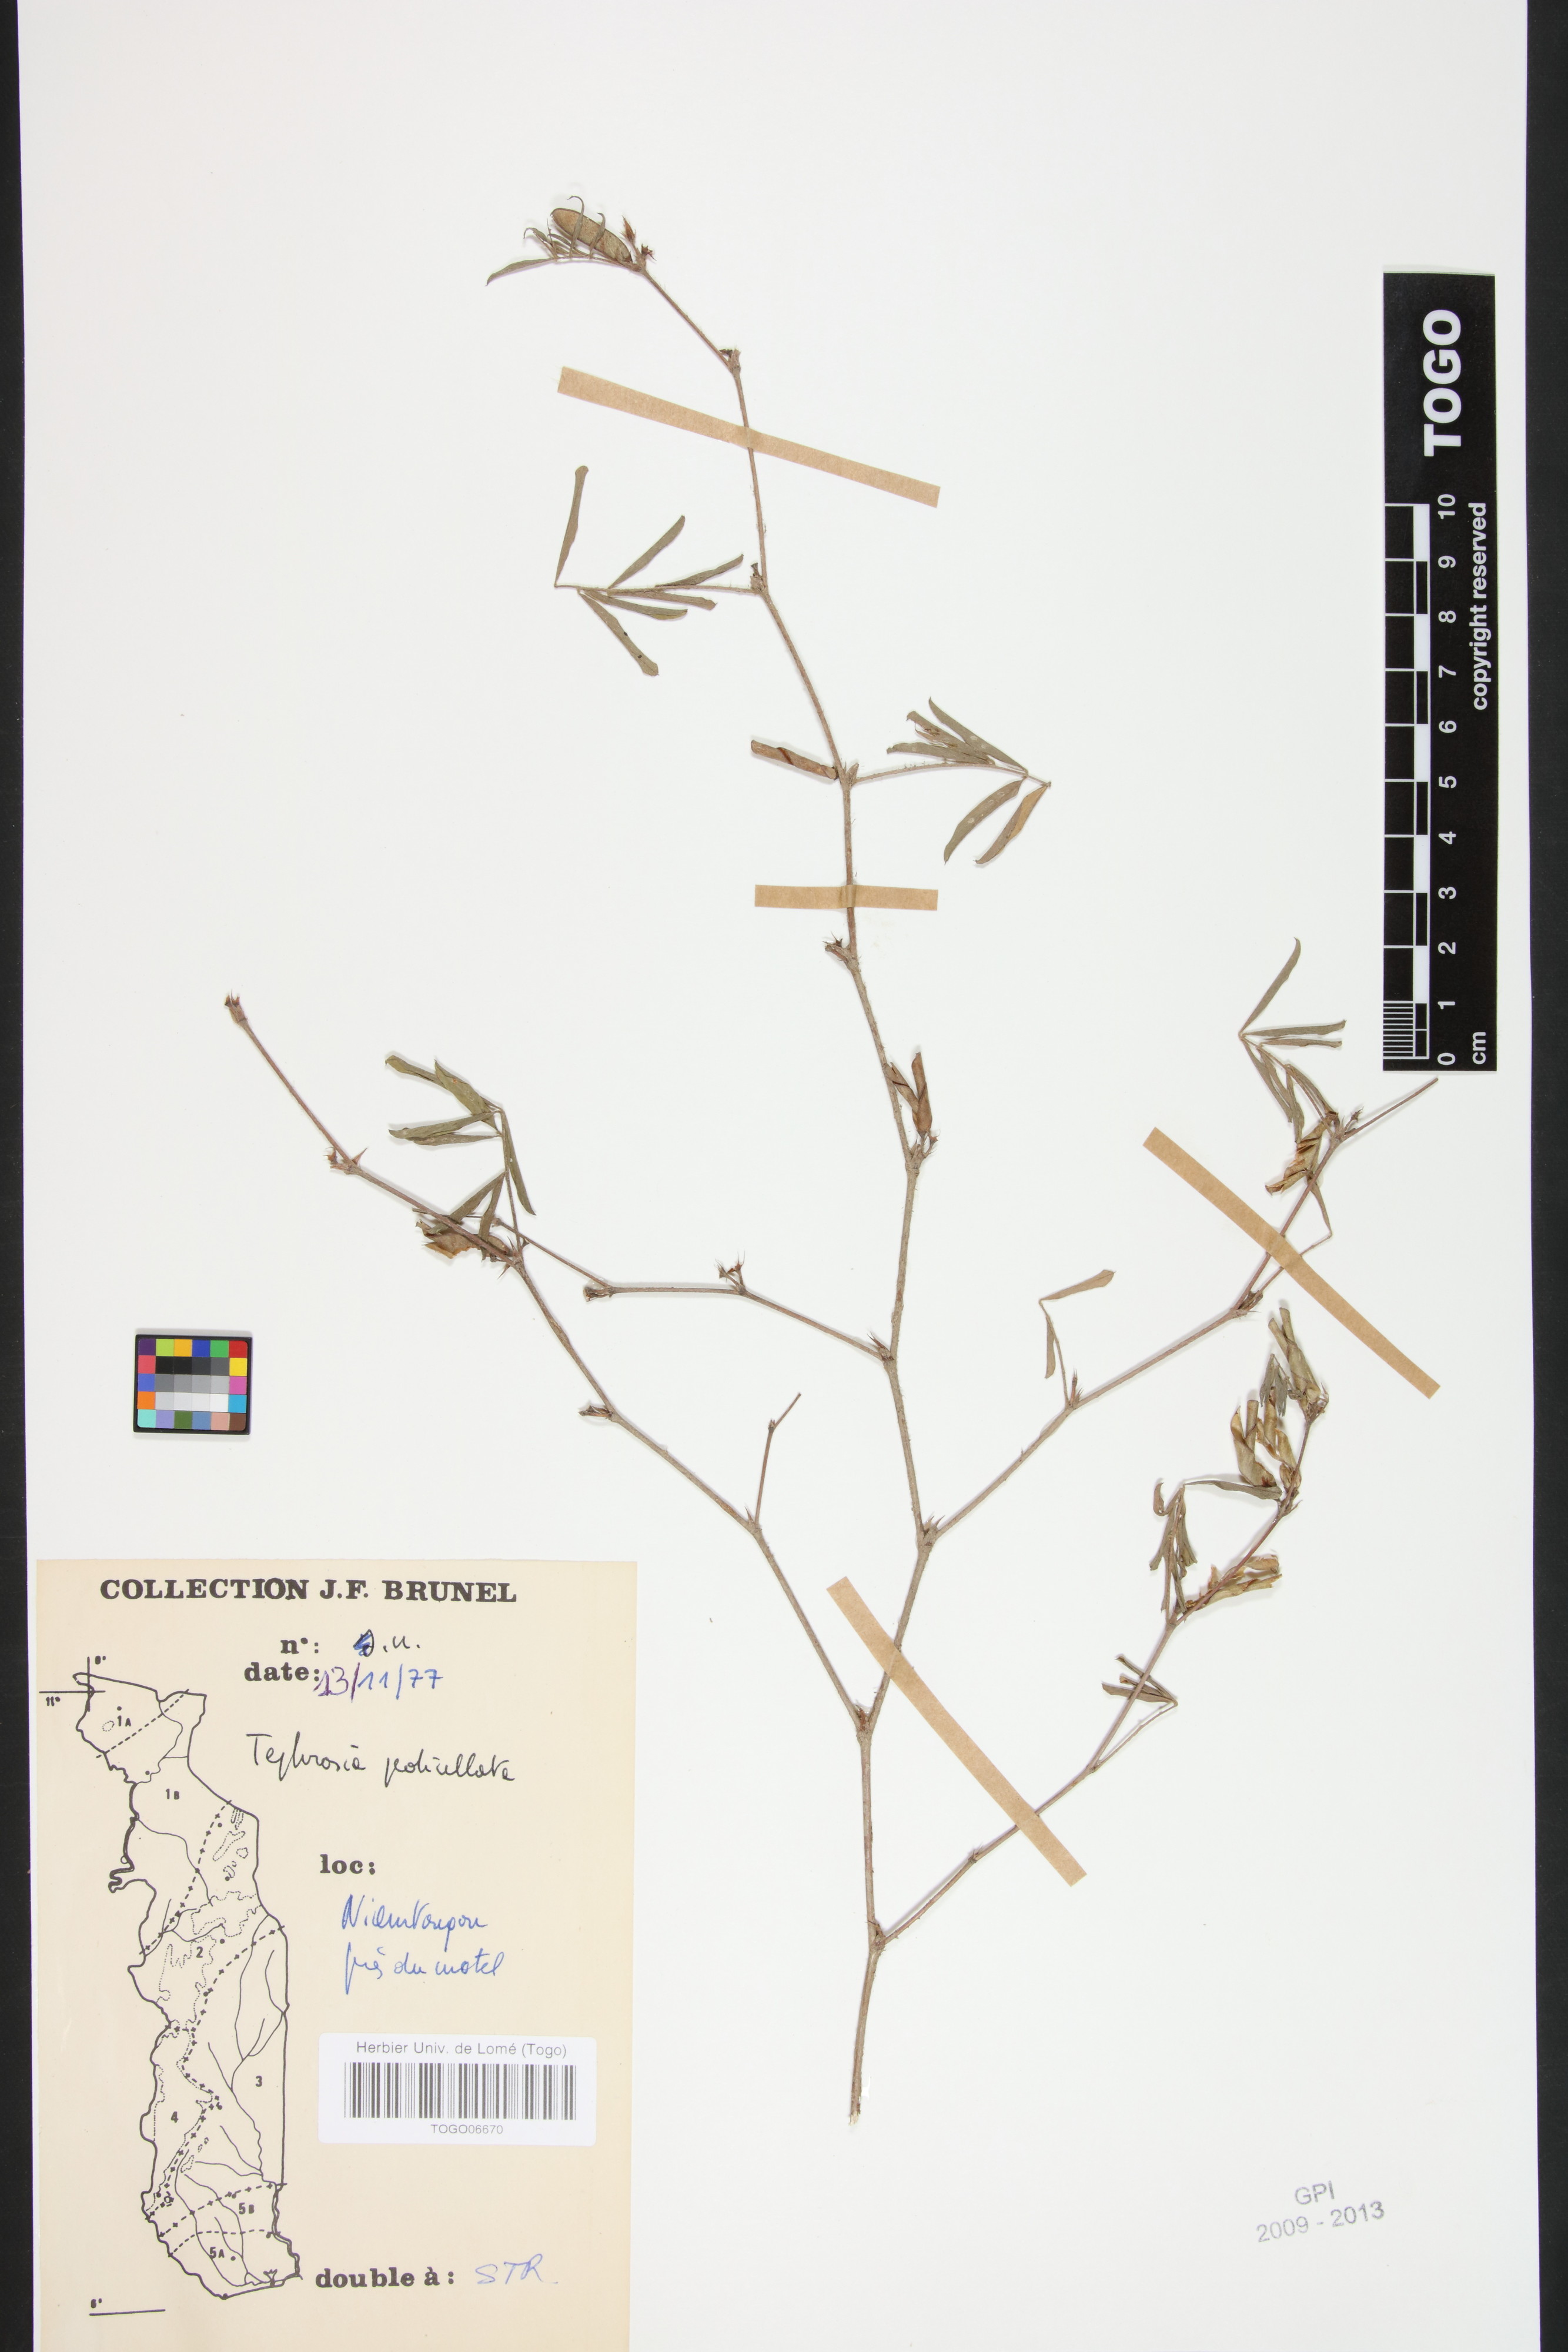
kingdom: Plantae
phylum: Tracheophyta
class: Magnoliopsida
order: Fabales
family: Fabaceae
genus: Tephrosia
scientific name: Tephrosia pedicellata
